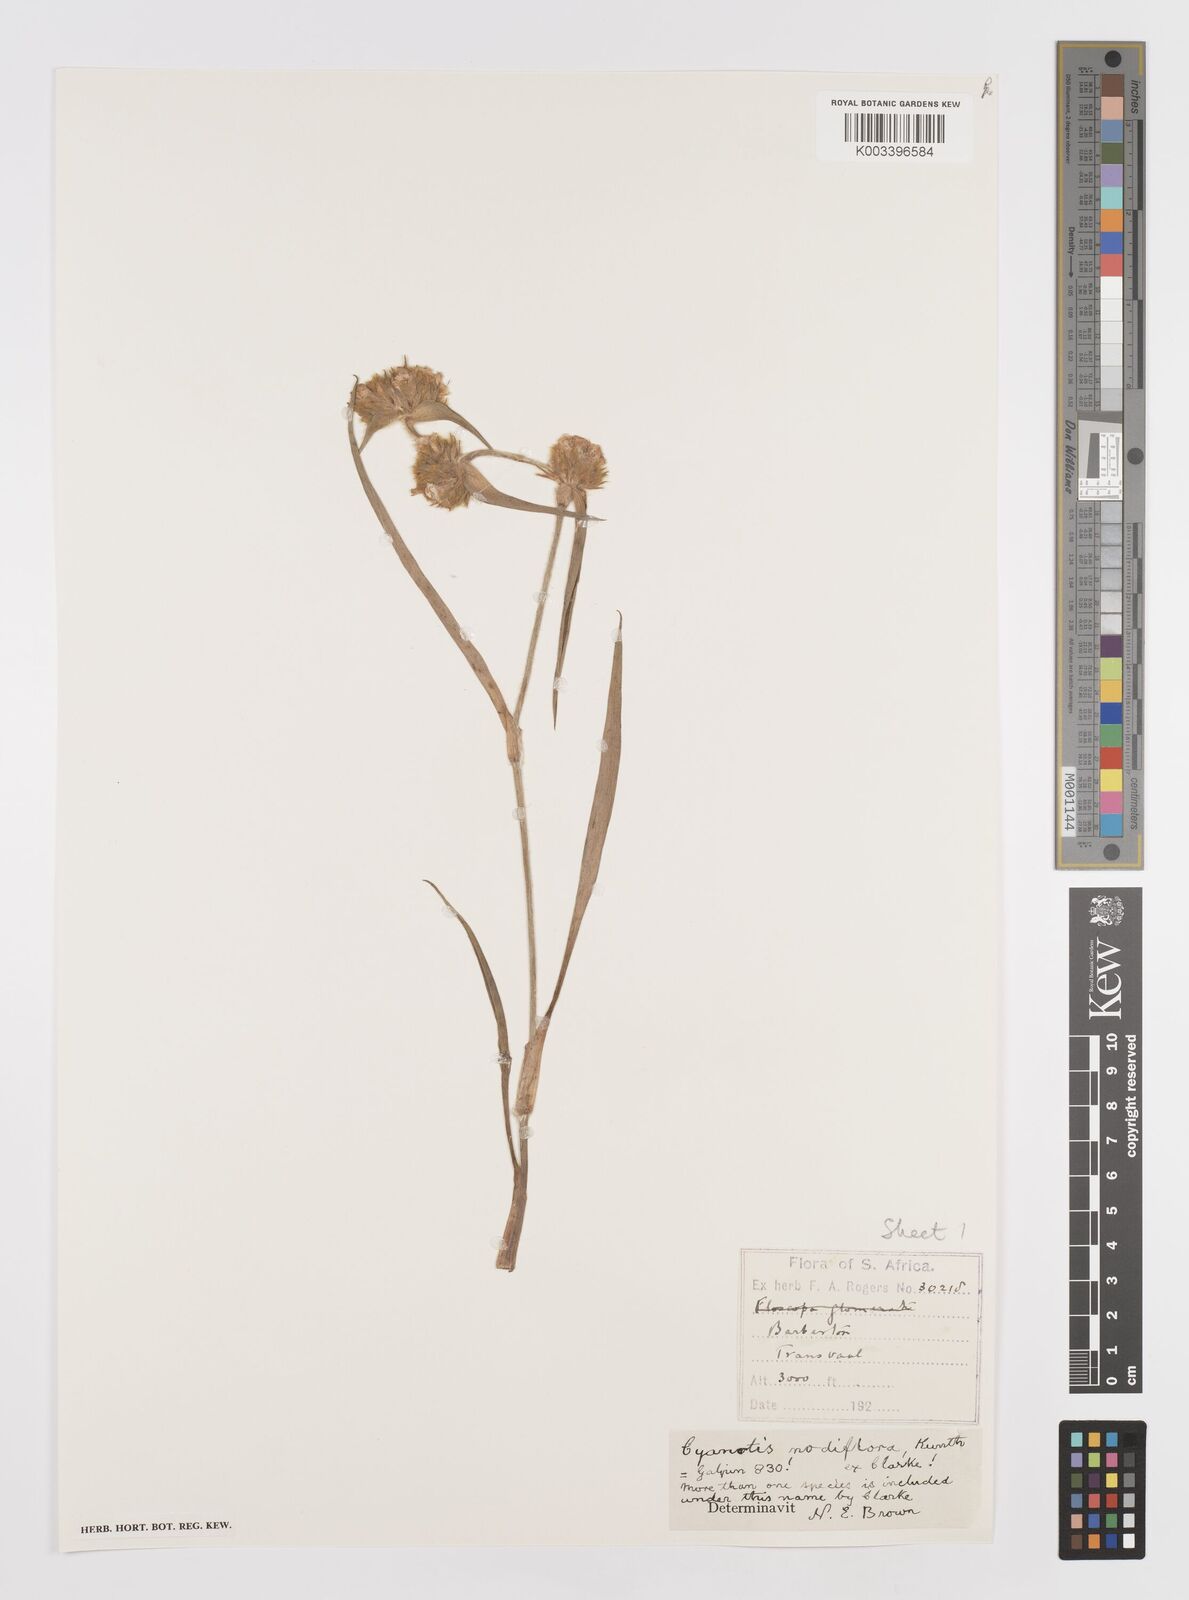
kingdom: Plantae
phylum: Tracheophyta
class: Liliopsida
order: Commelinales
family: Commelinaceae
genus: Cyanotis
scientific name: Cyanotis speciosa
